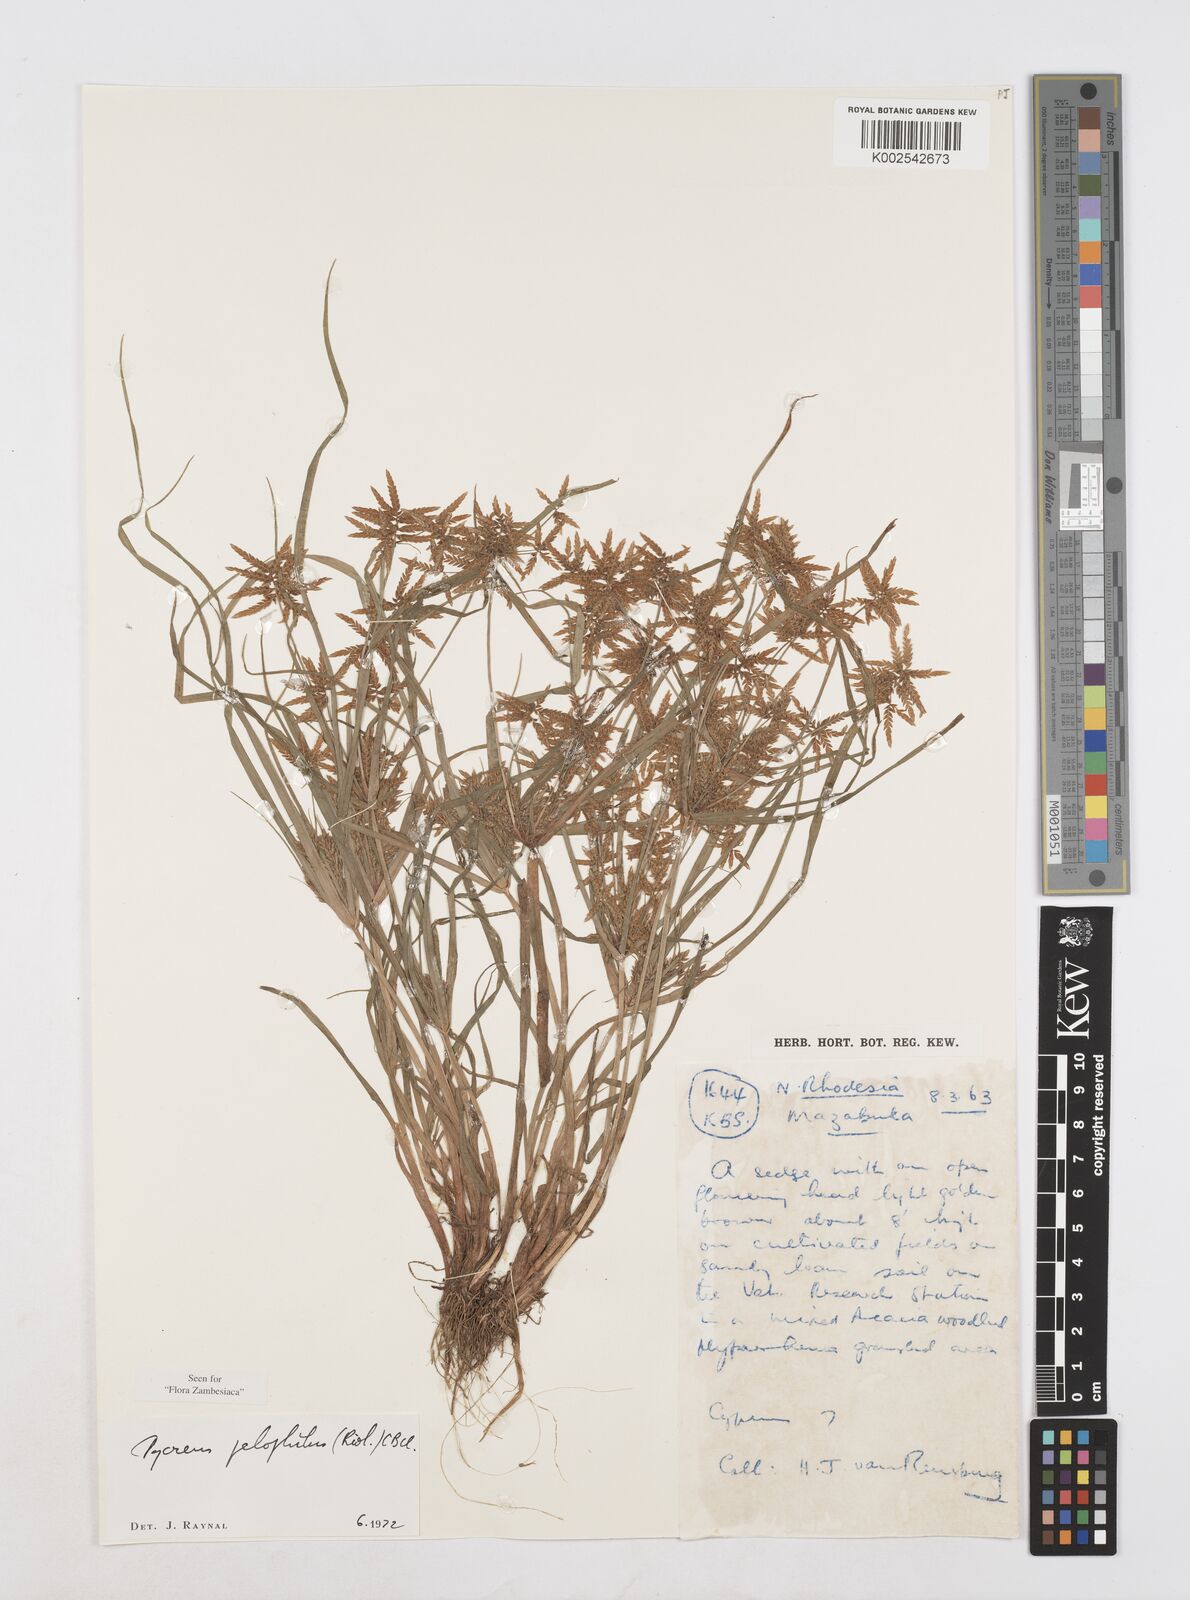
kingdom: Plantae
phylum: Tracheophyta
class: Liliopsida
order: Poales
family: Cyperaceae
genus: Cyperus
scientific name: Cyperus pelophilus
